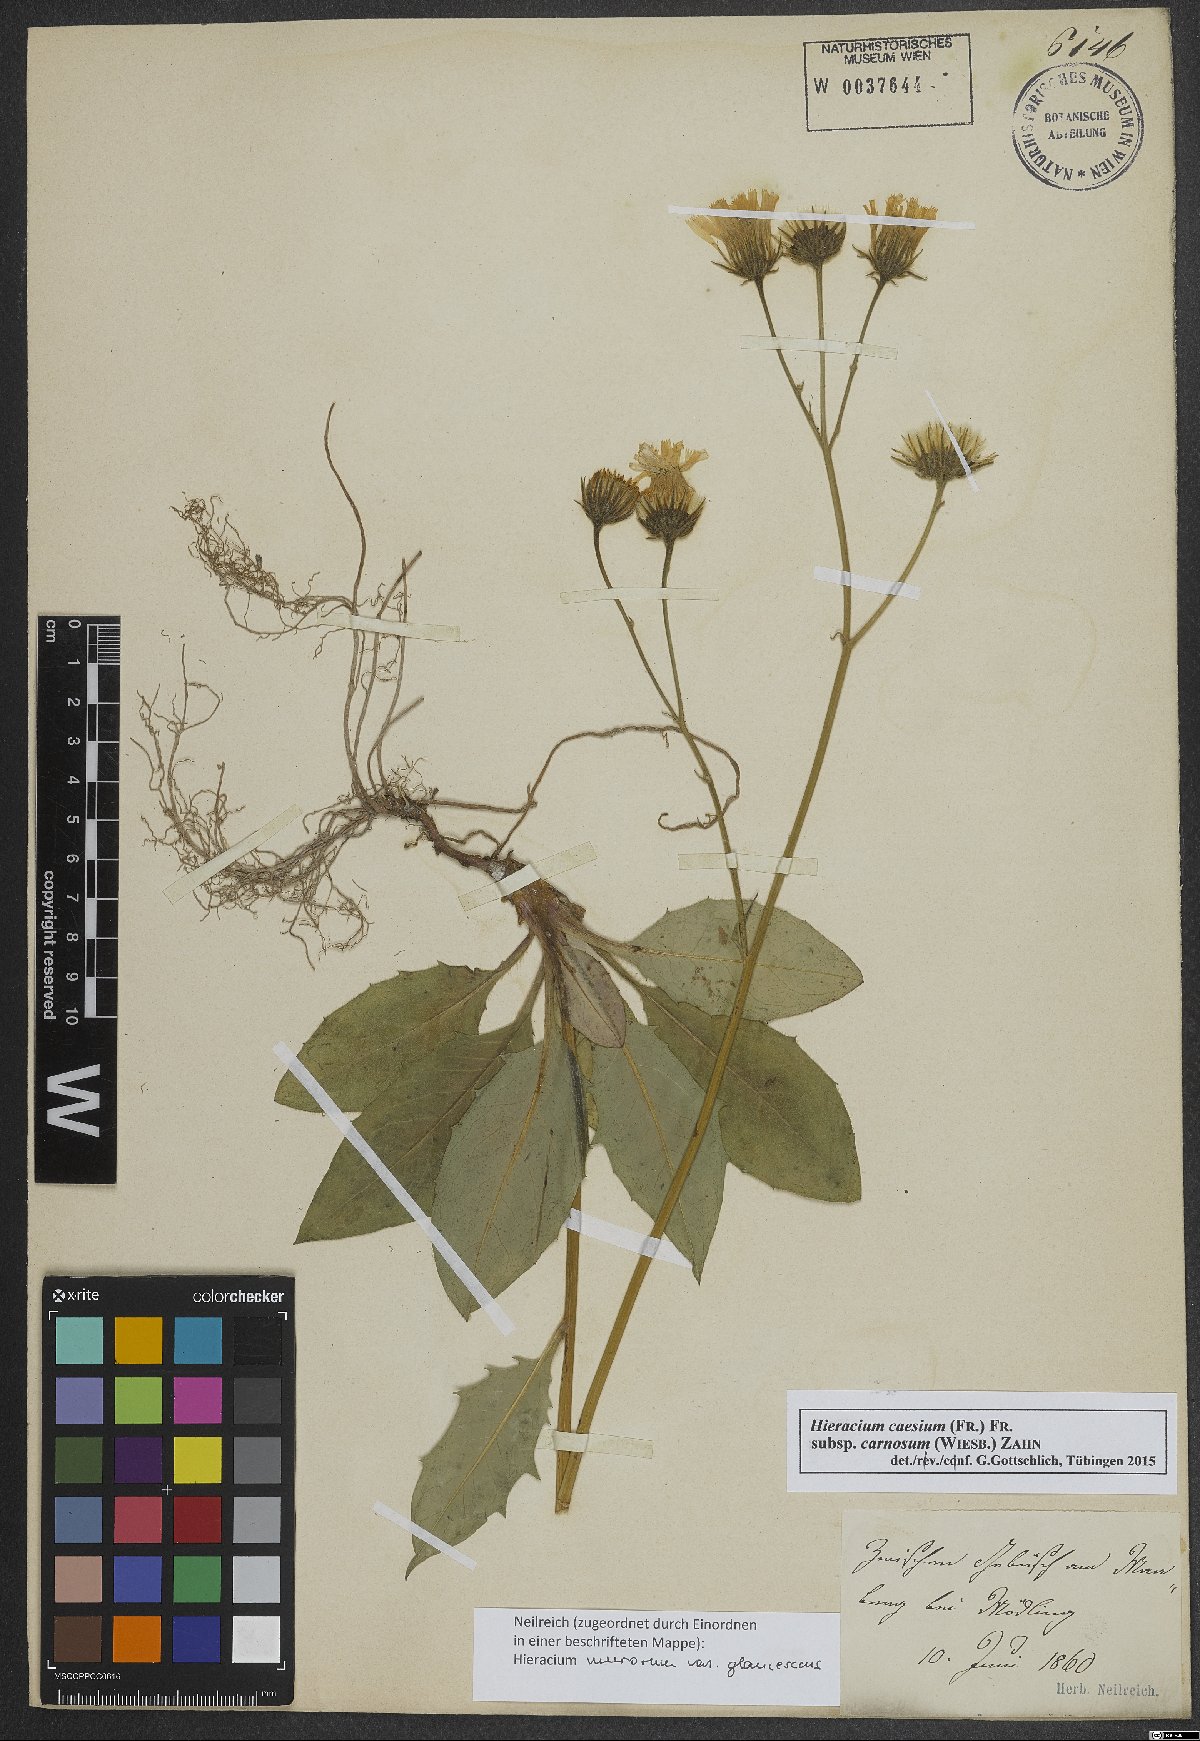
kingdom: Plantae
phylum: Tracheophyta
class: Magnoliopsida
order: Asterales
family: Asteraceae
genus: Hieracium
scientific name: Hieracium caesium
